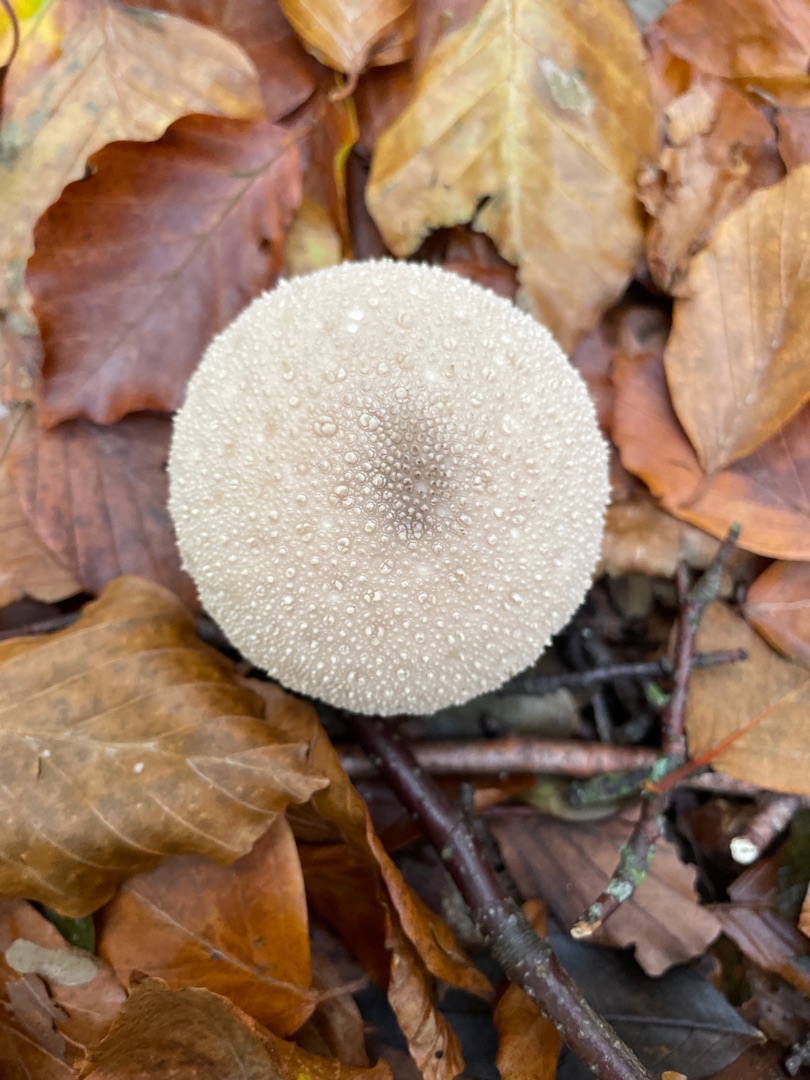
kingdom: Fungi
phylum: Basidiomycota
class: Agaricomycetes
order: Agaricales
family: Lycoperdaceae
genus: Lycoperdon
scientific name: Lycoperdon perlatum
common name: Krystal-støvbold
